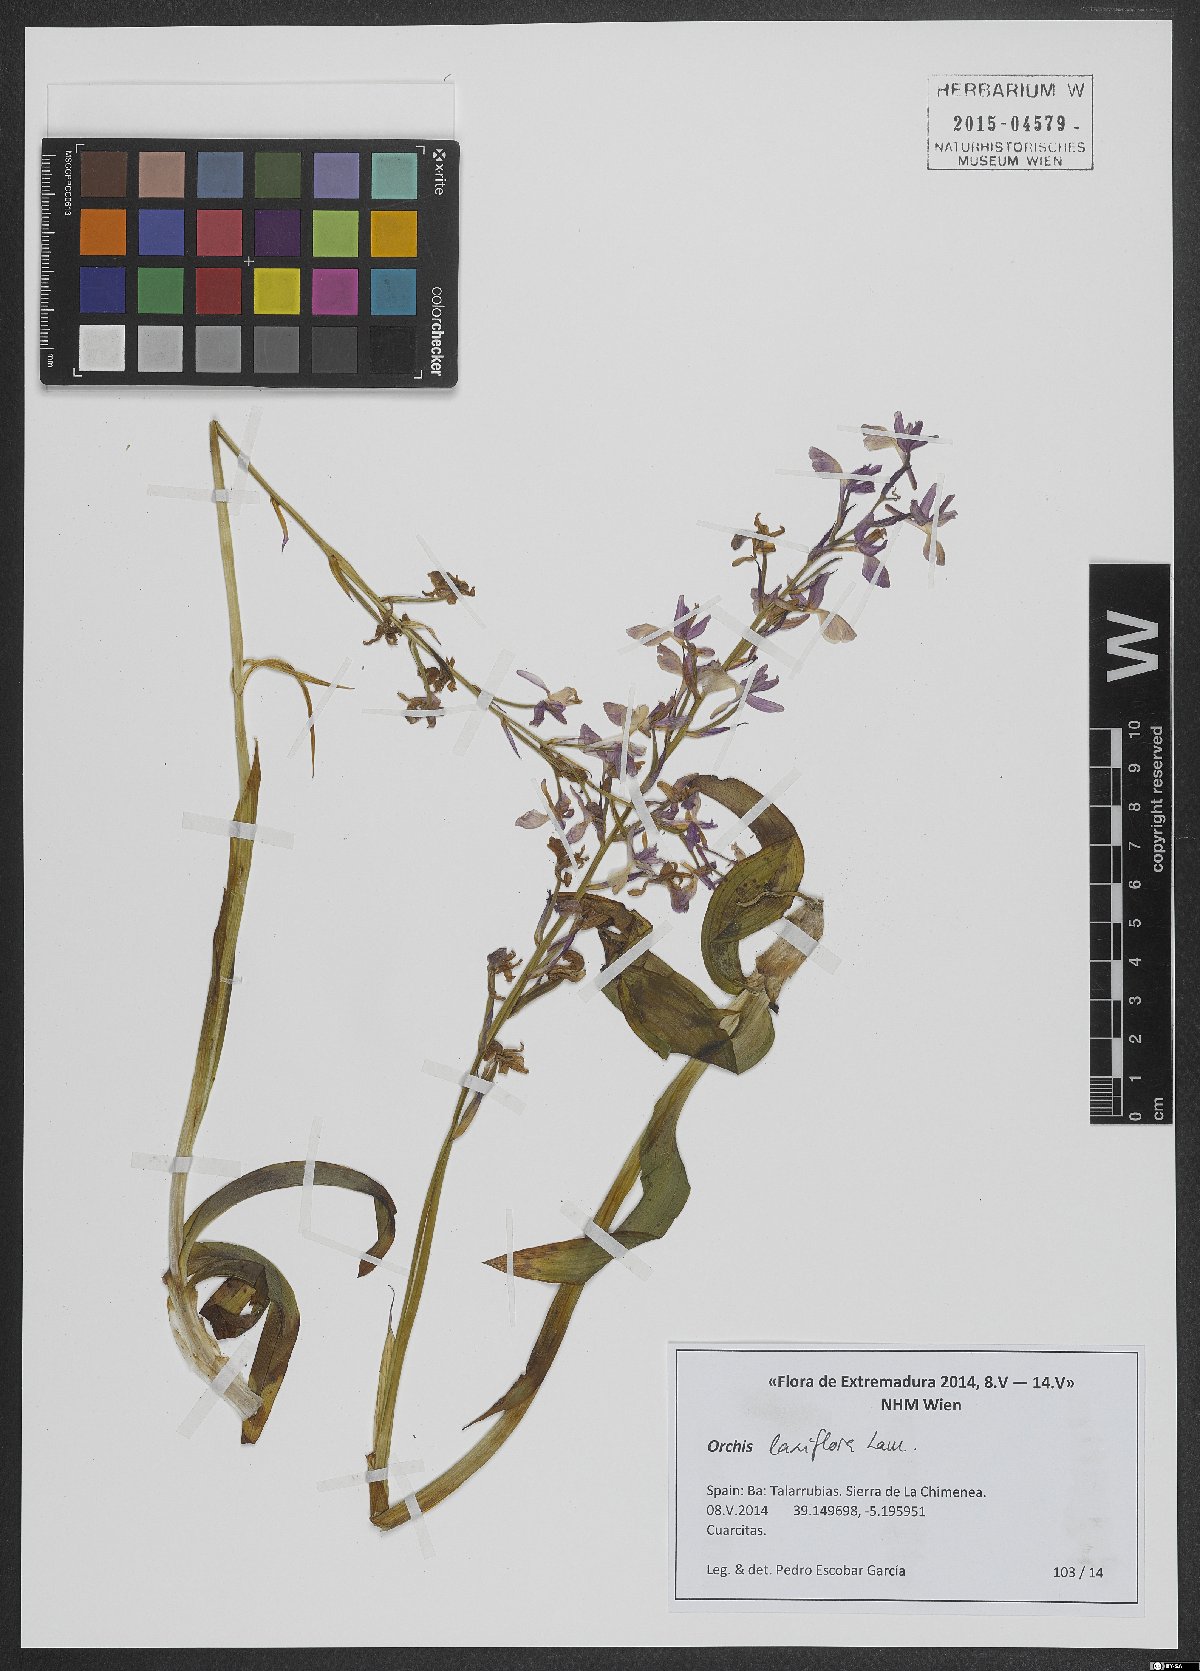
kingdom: Plantae
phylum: Tracheophyta
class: Liliopsida
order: Asparagales
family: Orchidaceae
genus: Anacamptis
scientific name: Anacamptis laxiflora
